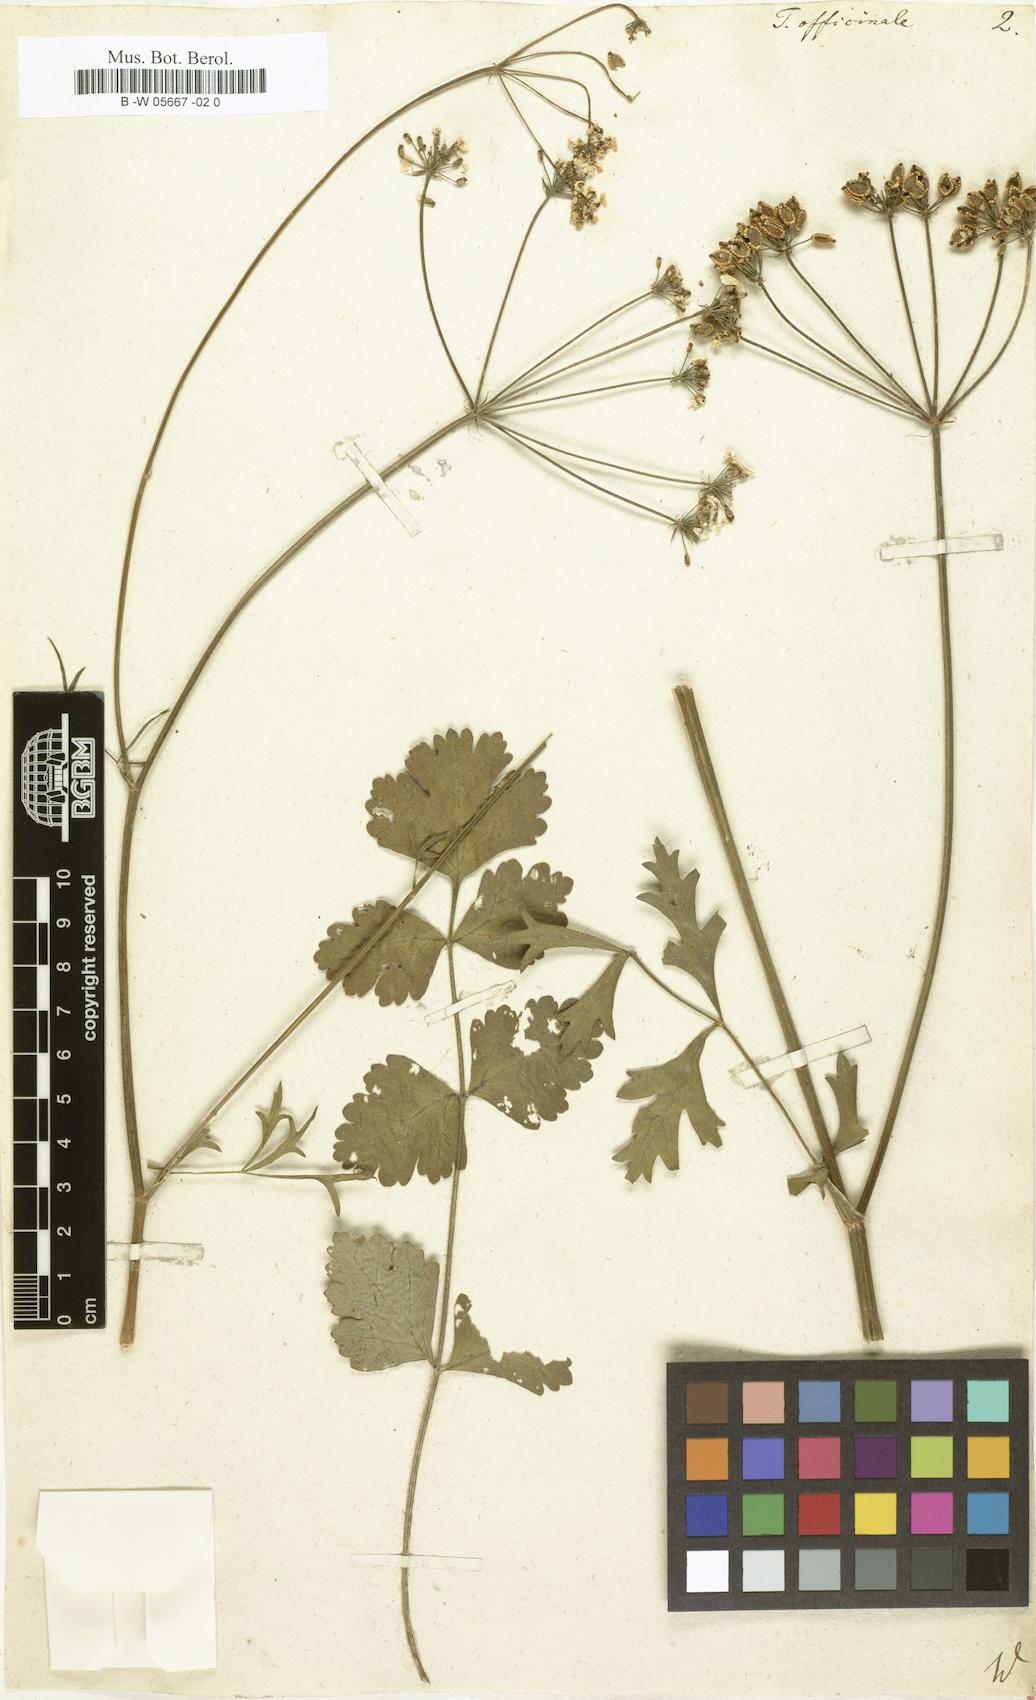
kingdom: Plantae
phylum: Tracheophyta
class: Magnoliopsida
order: Apiales
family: Apiaceae
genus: Tordylium
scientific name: Tordylium officinale
